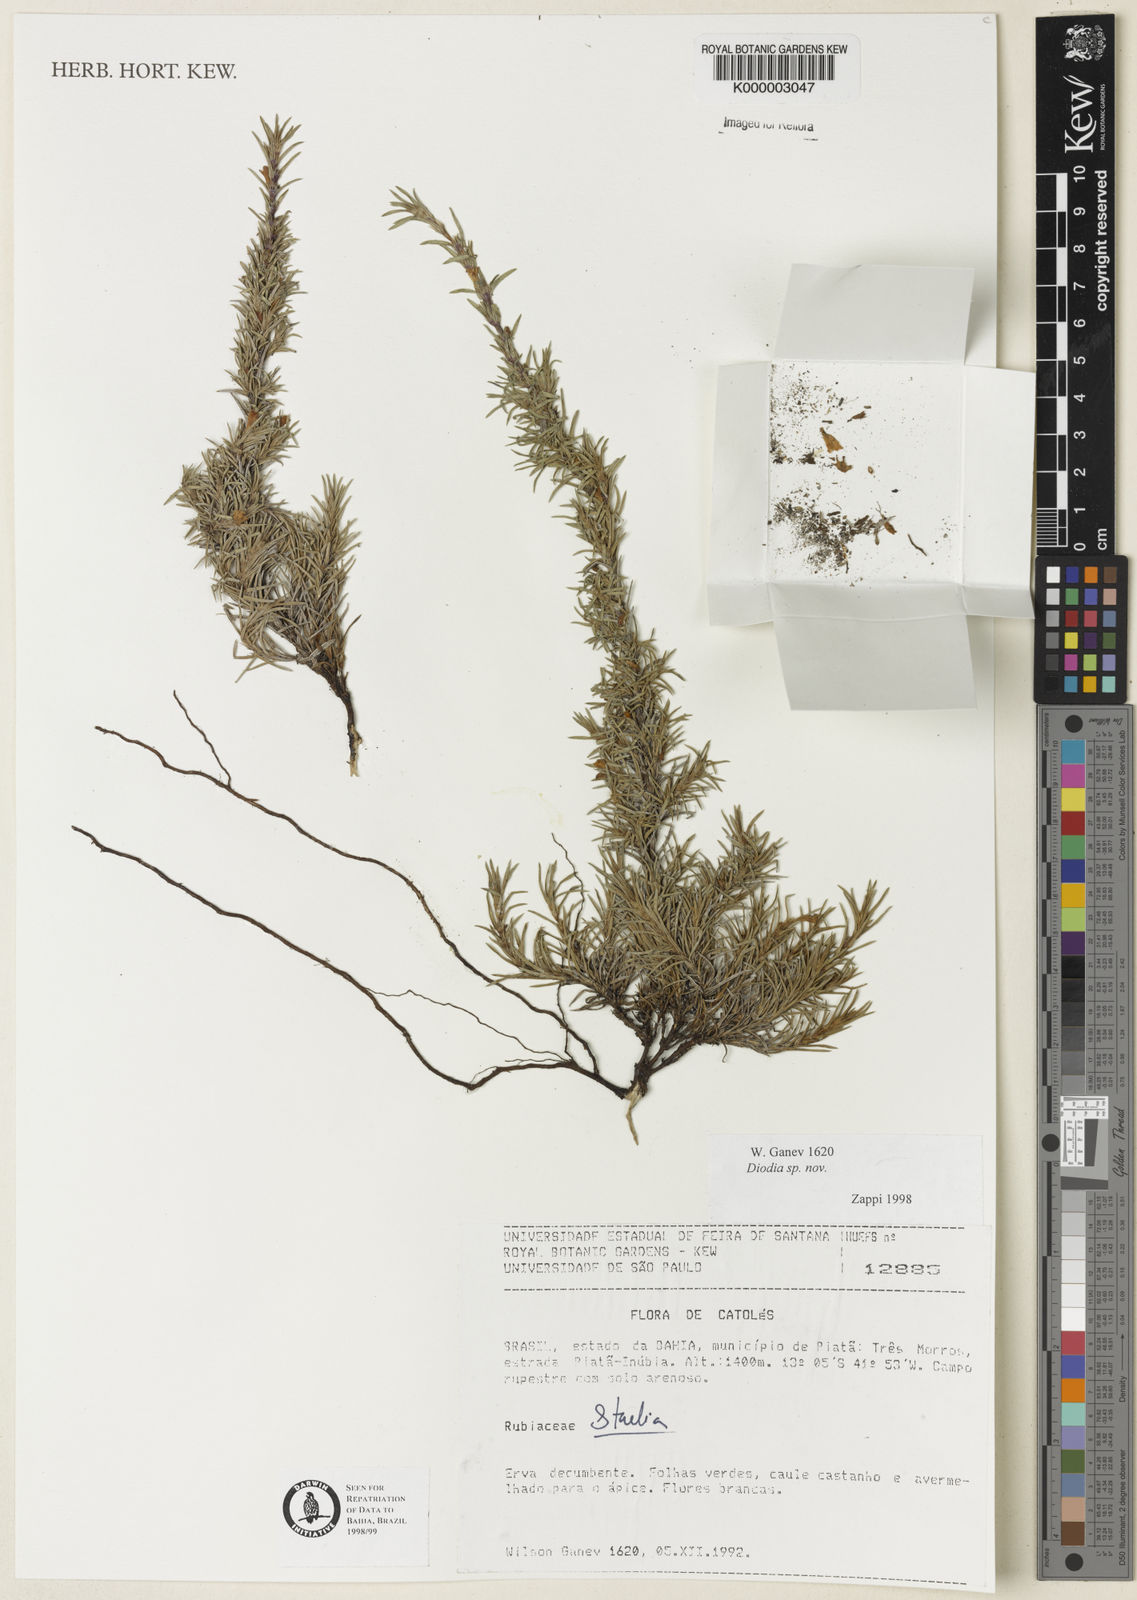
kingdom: Plantae
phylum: Tracheophyta
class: Magnoliopsida
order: Gentianales
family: Rubiaceae
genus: Hexasepalum
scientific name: Hexasepalum
